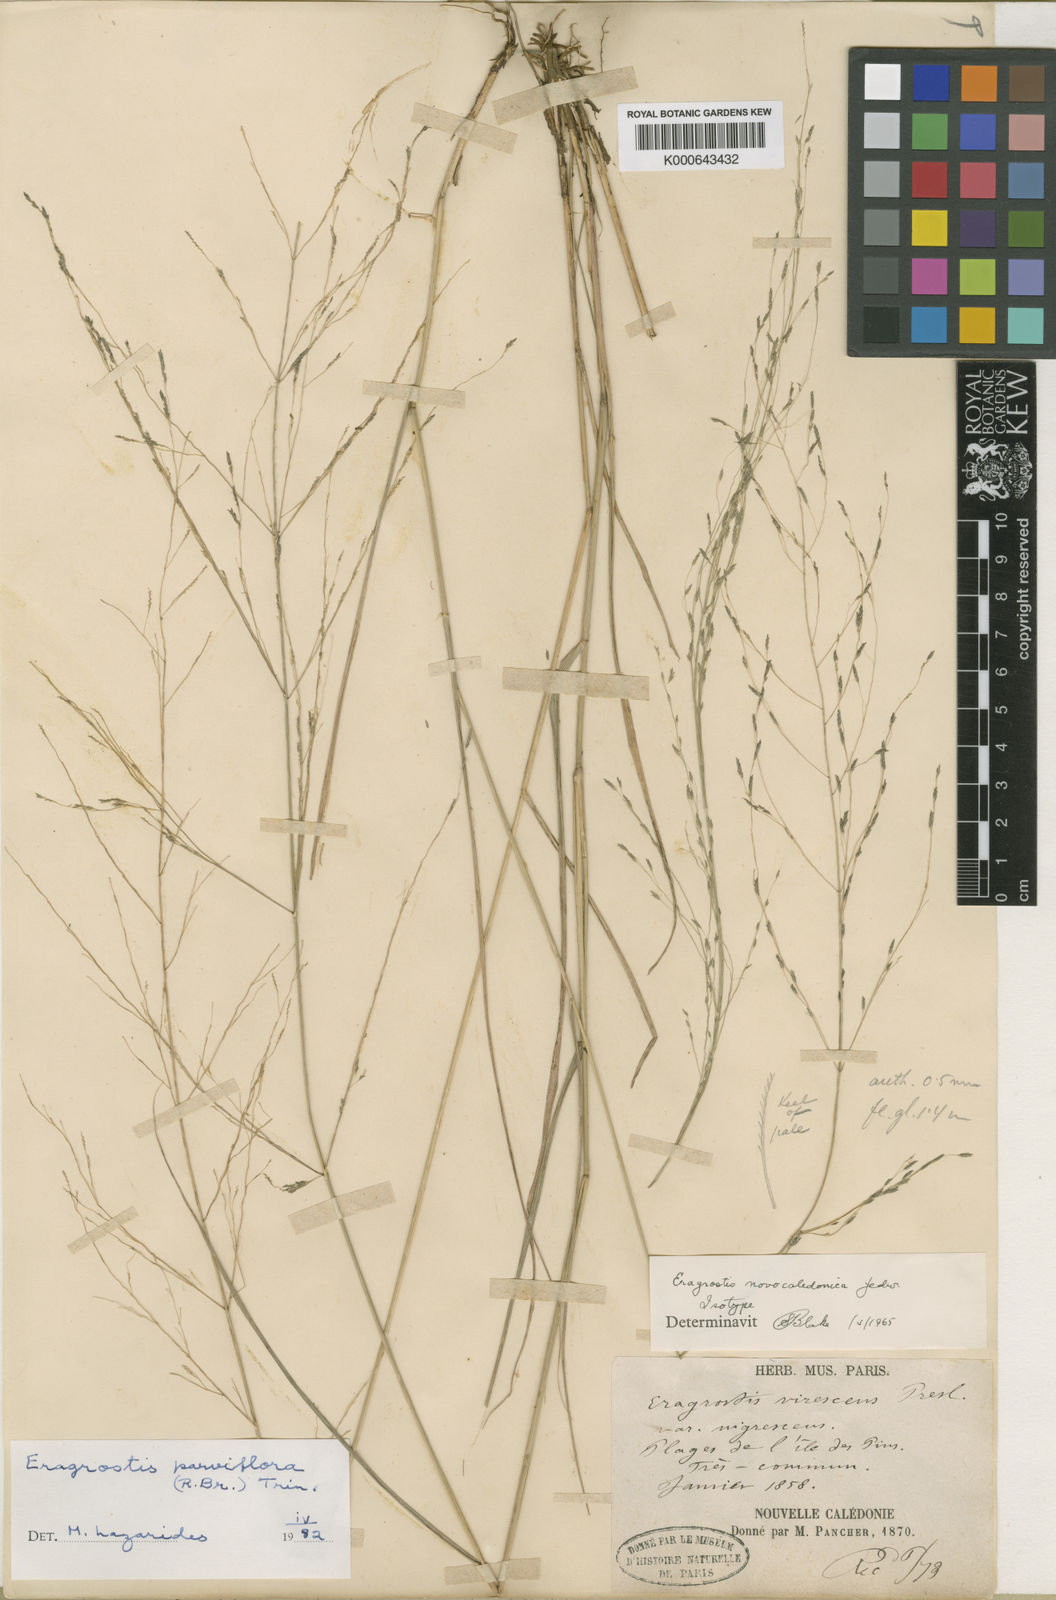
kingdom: Plantae
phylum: Tracheophyta
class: Liliopsida
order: Poales
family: Poaceae
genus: Eragrostis
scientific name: Eragrostis parviflora
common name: Weeping love-grass
